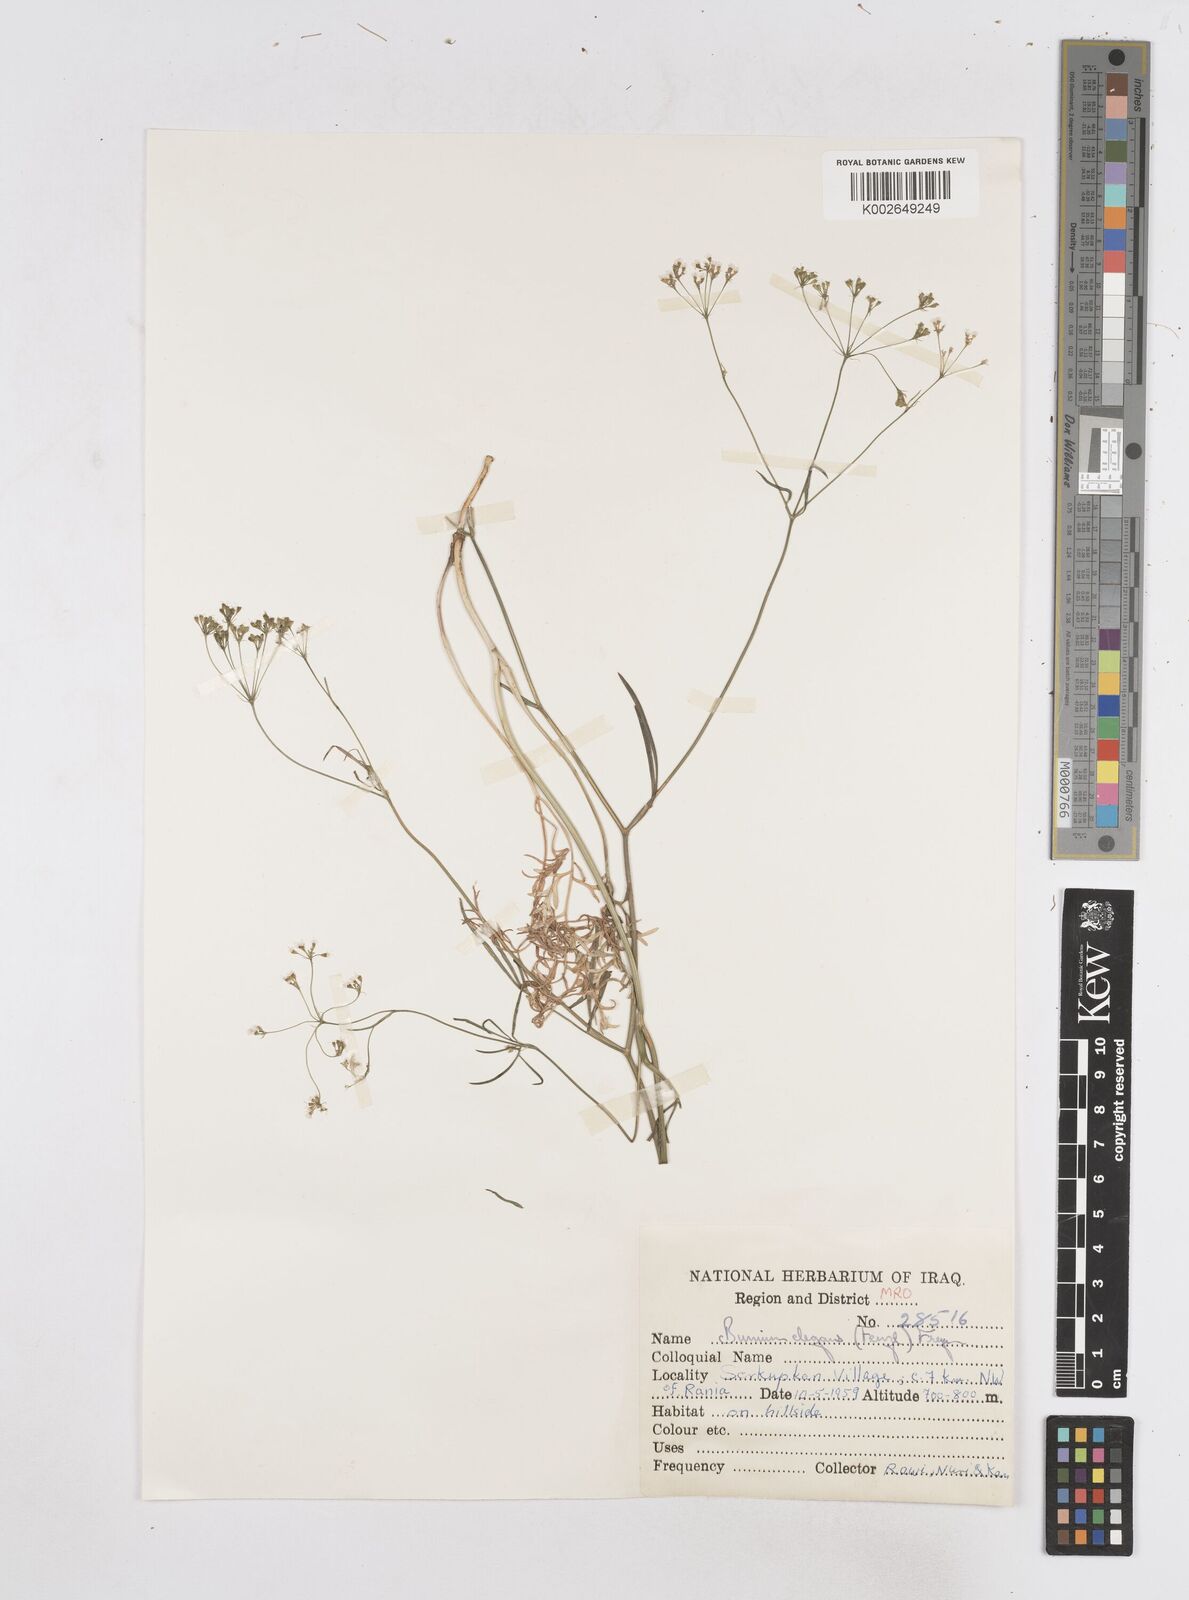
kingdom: Plantae
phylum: Tracheophyta
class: Magnoliopsida
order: Apiales
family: Apiaceae
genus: Bunium
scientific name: Bunium paucifolium
